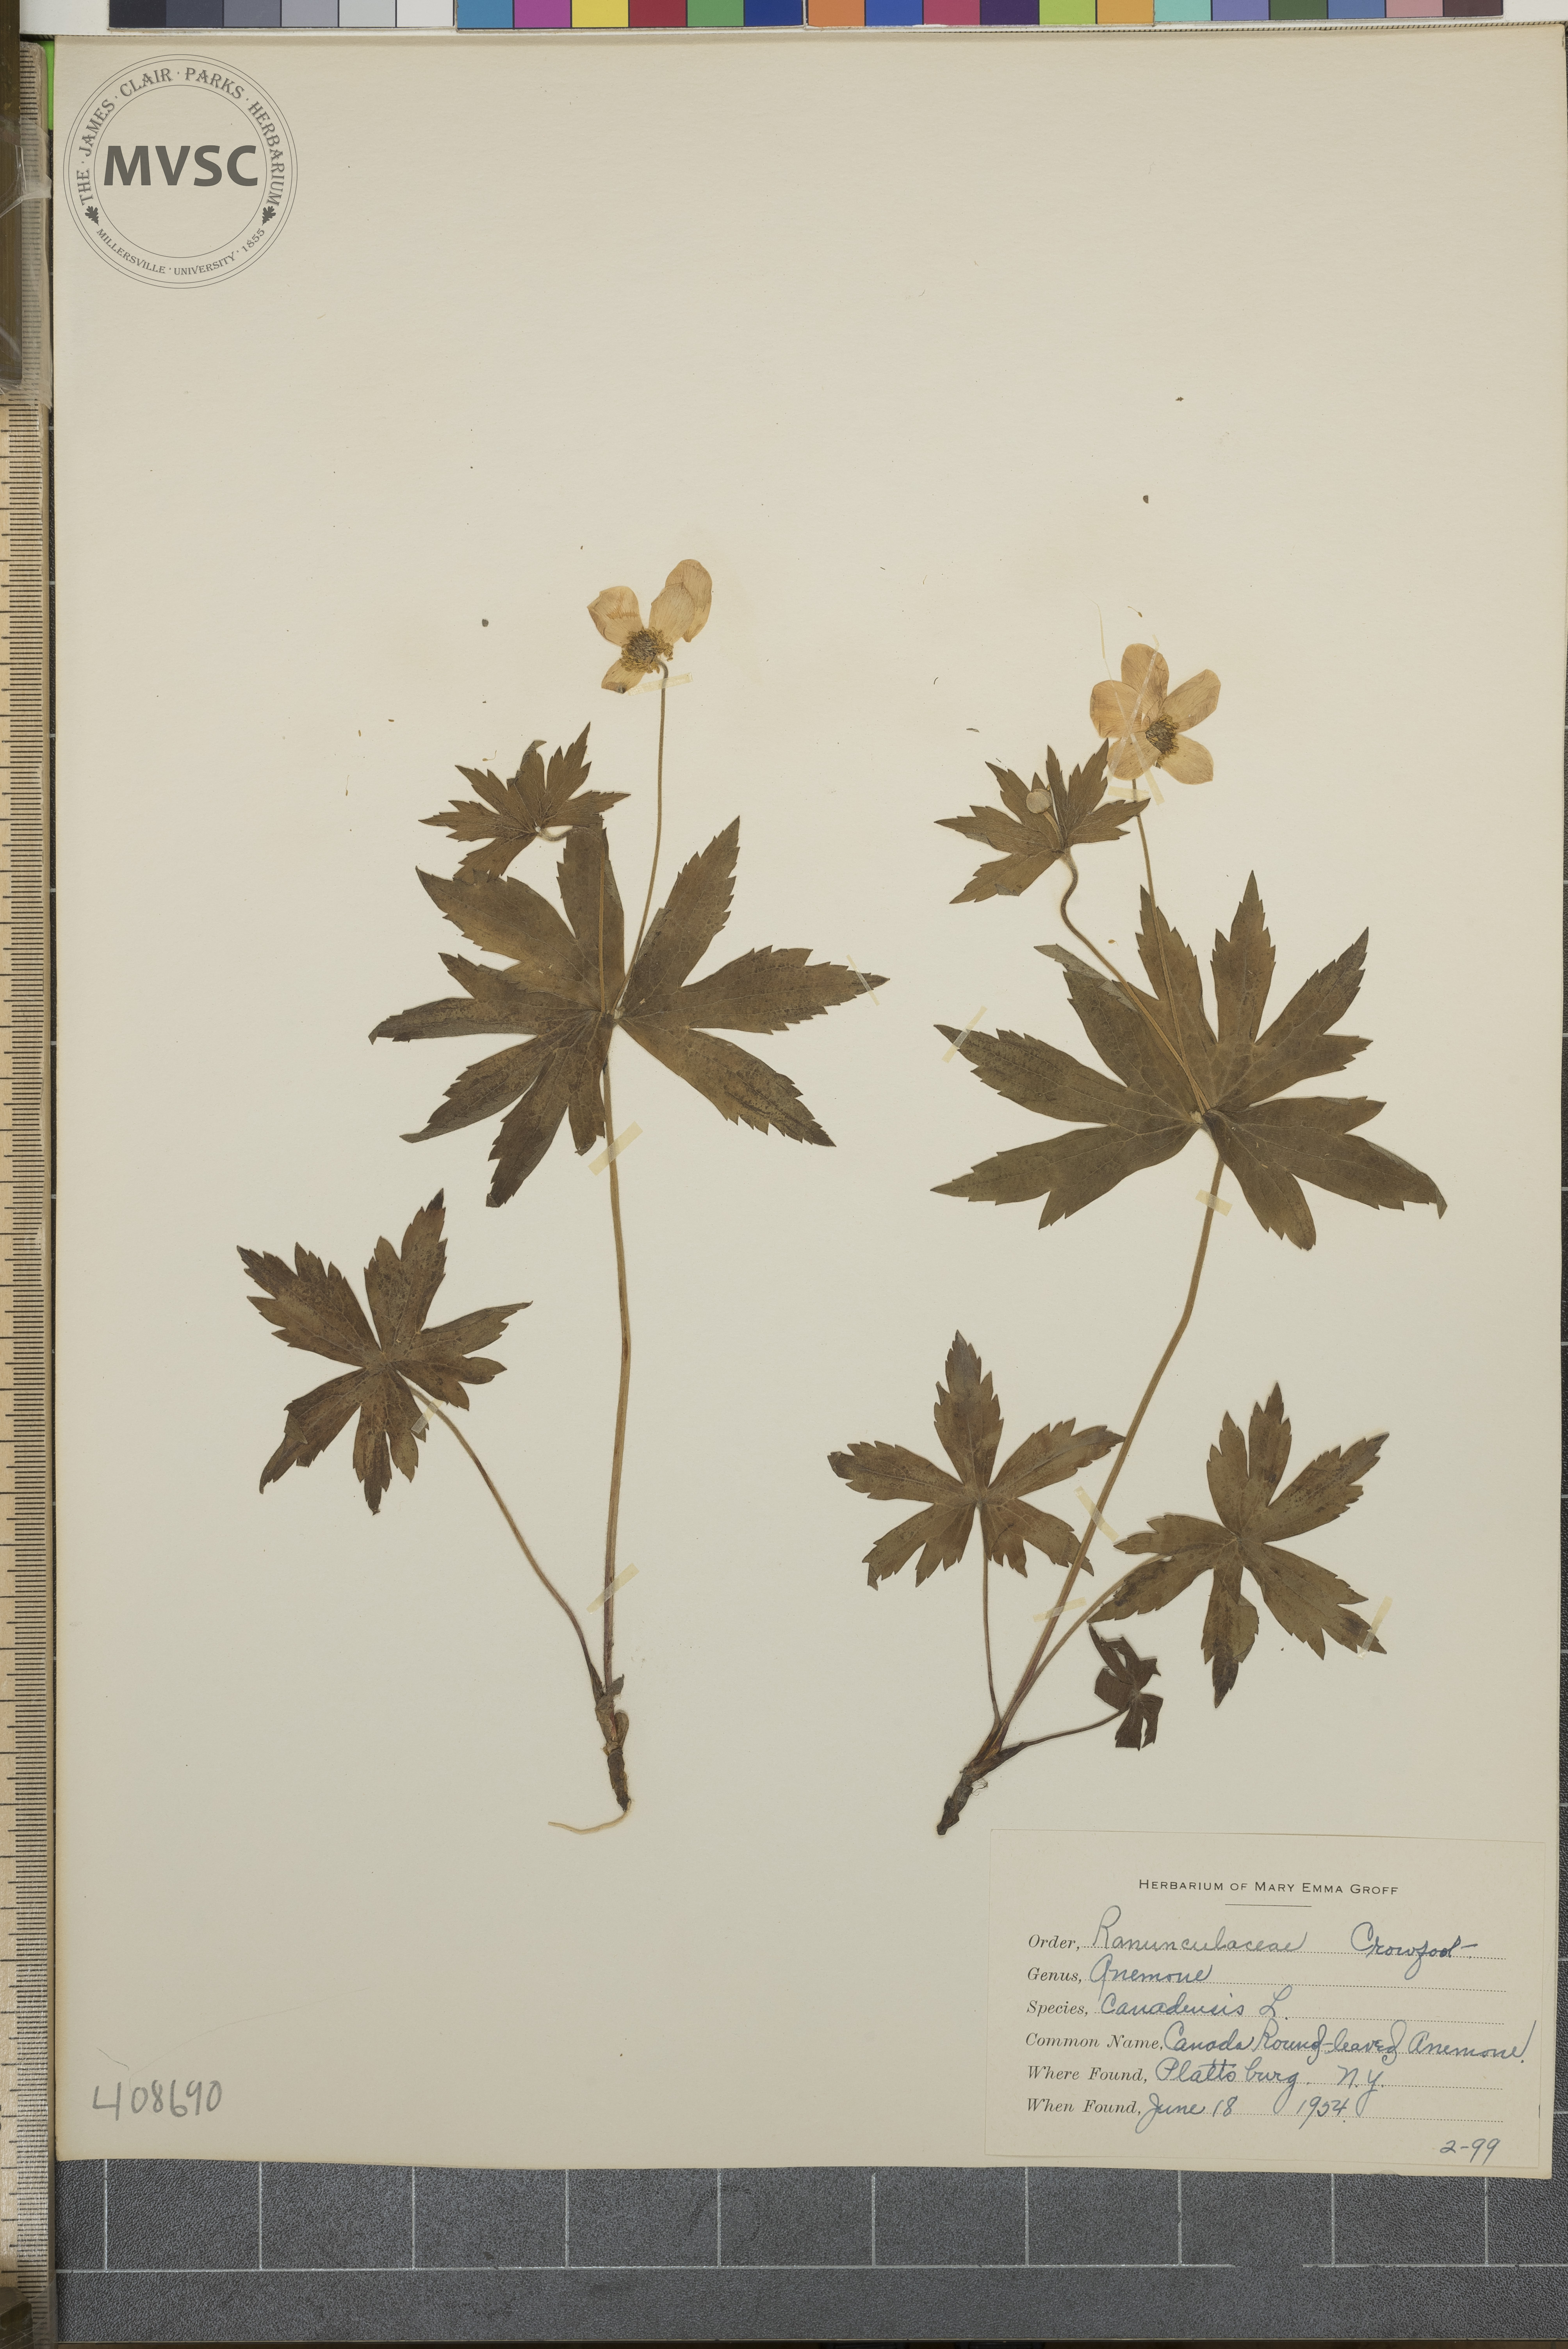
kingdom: Plantae
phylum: Tracheophyta
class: Magnoliopsida
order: Ranunculales
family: Ranunculaceae
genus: Anemonastrum
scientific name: Anemonastrum canadense
